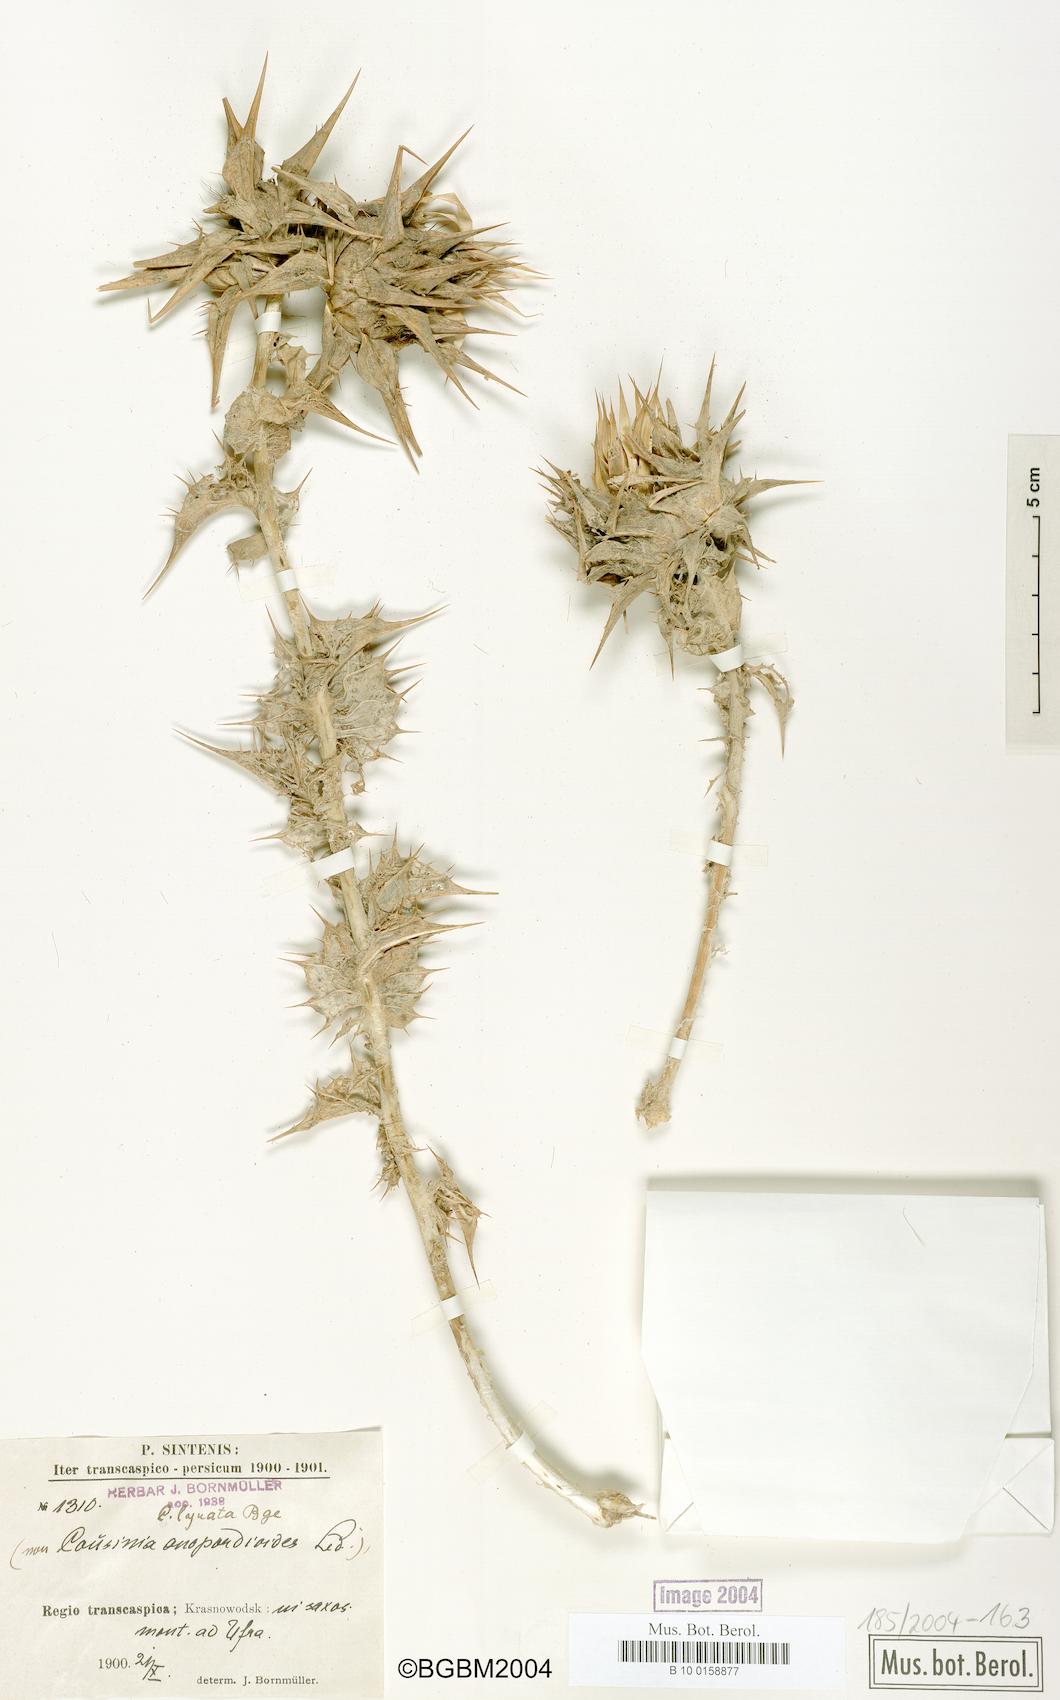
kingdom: Plantae
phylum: Tracheophyta
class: Magnoliopsida
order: Asterales
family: Asteraceae
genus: Cousinia
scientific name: Cousinia lyrata
